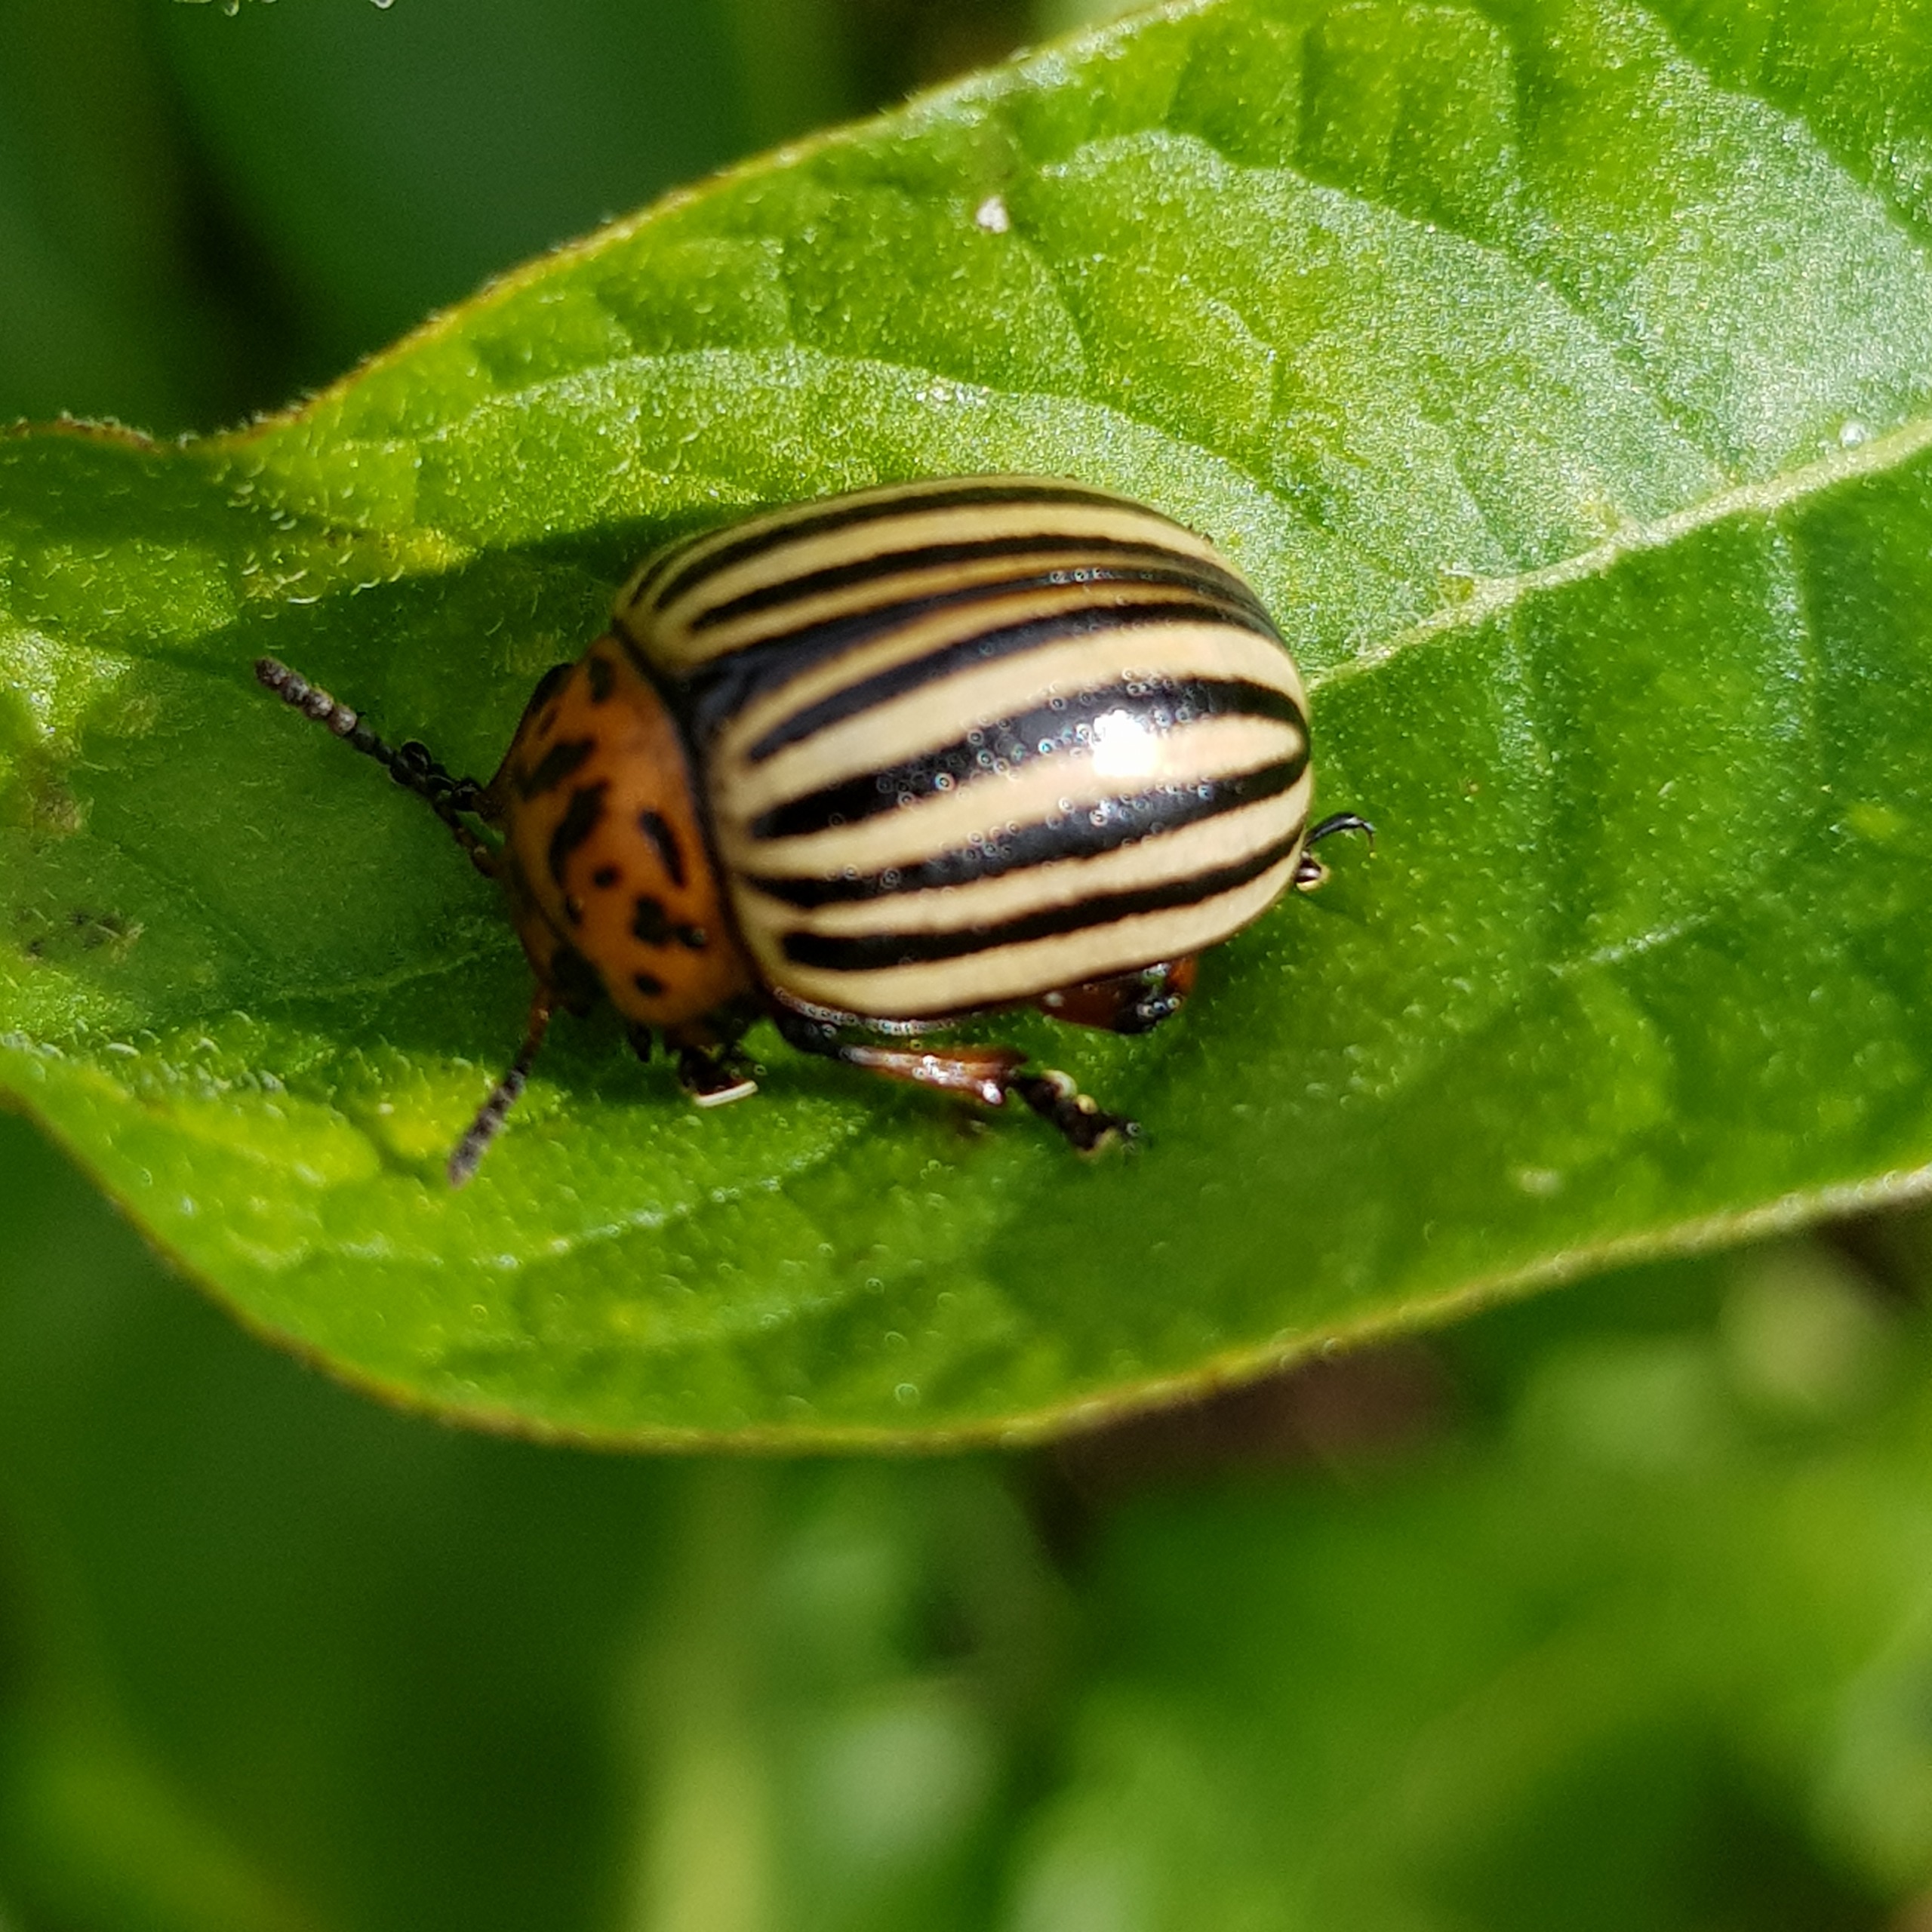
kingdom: Animalia
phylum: Arthropoda
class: Insecta
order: Coleoptera
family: Chrysomelidae
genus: Leptinotarsa
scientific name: Leptinotarsa decemlineata
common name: Coloradobille
